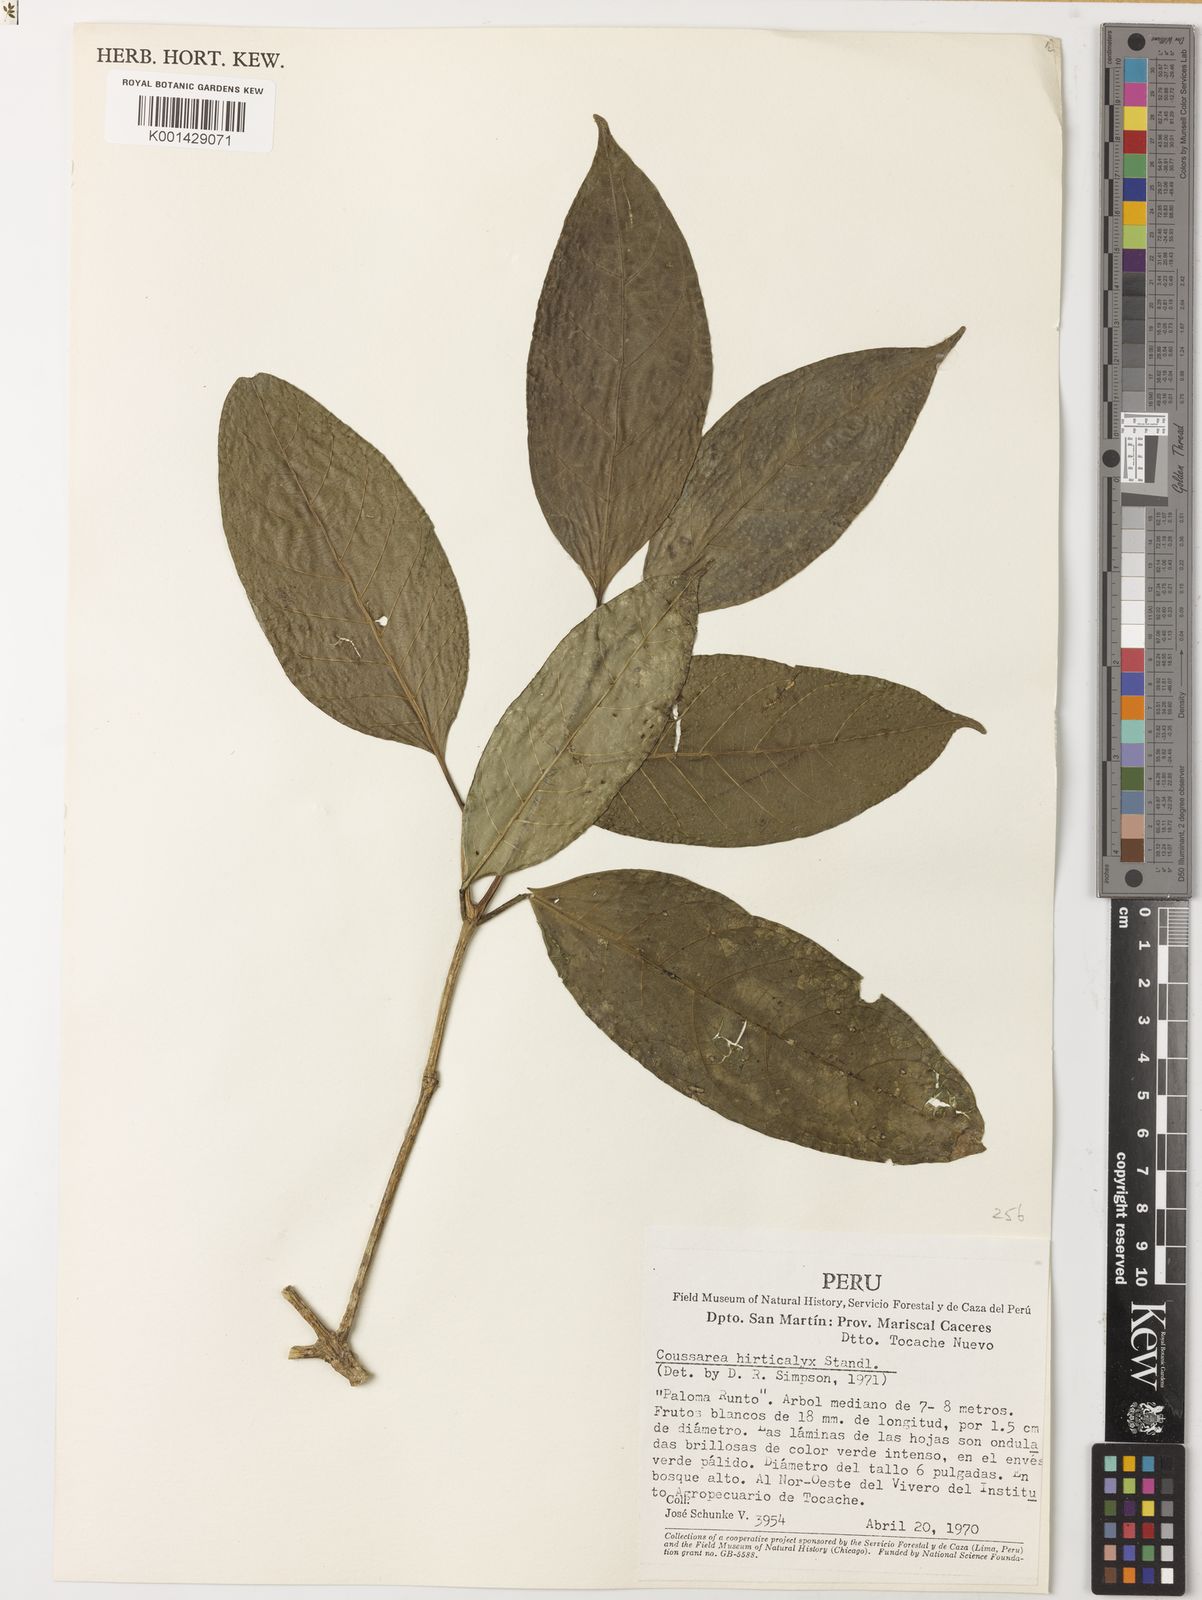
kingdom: Plantae
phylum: Tracheophyta
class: Magnoliopsida
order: Gentianales
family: Rubiaceae
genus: Coussarea
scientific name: Coussarea hirticalyx
